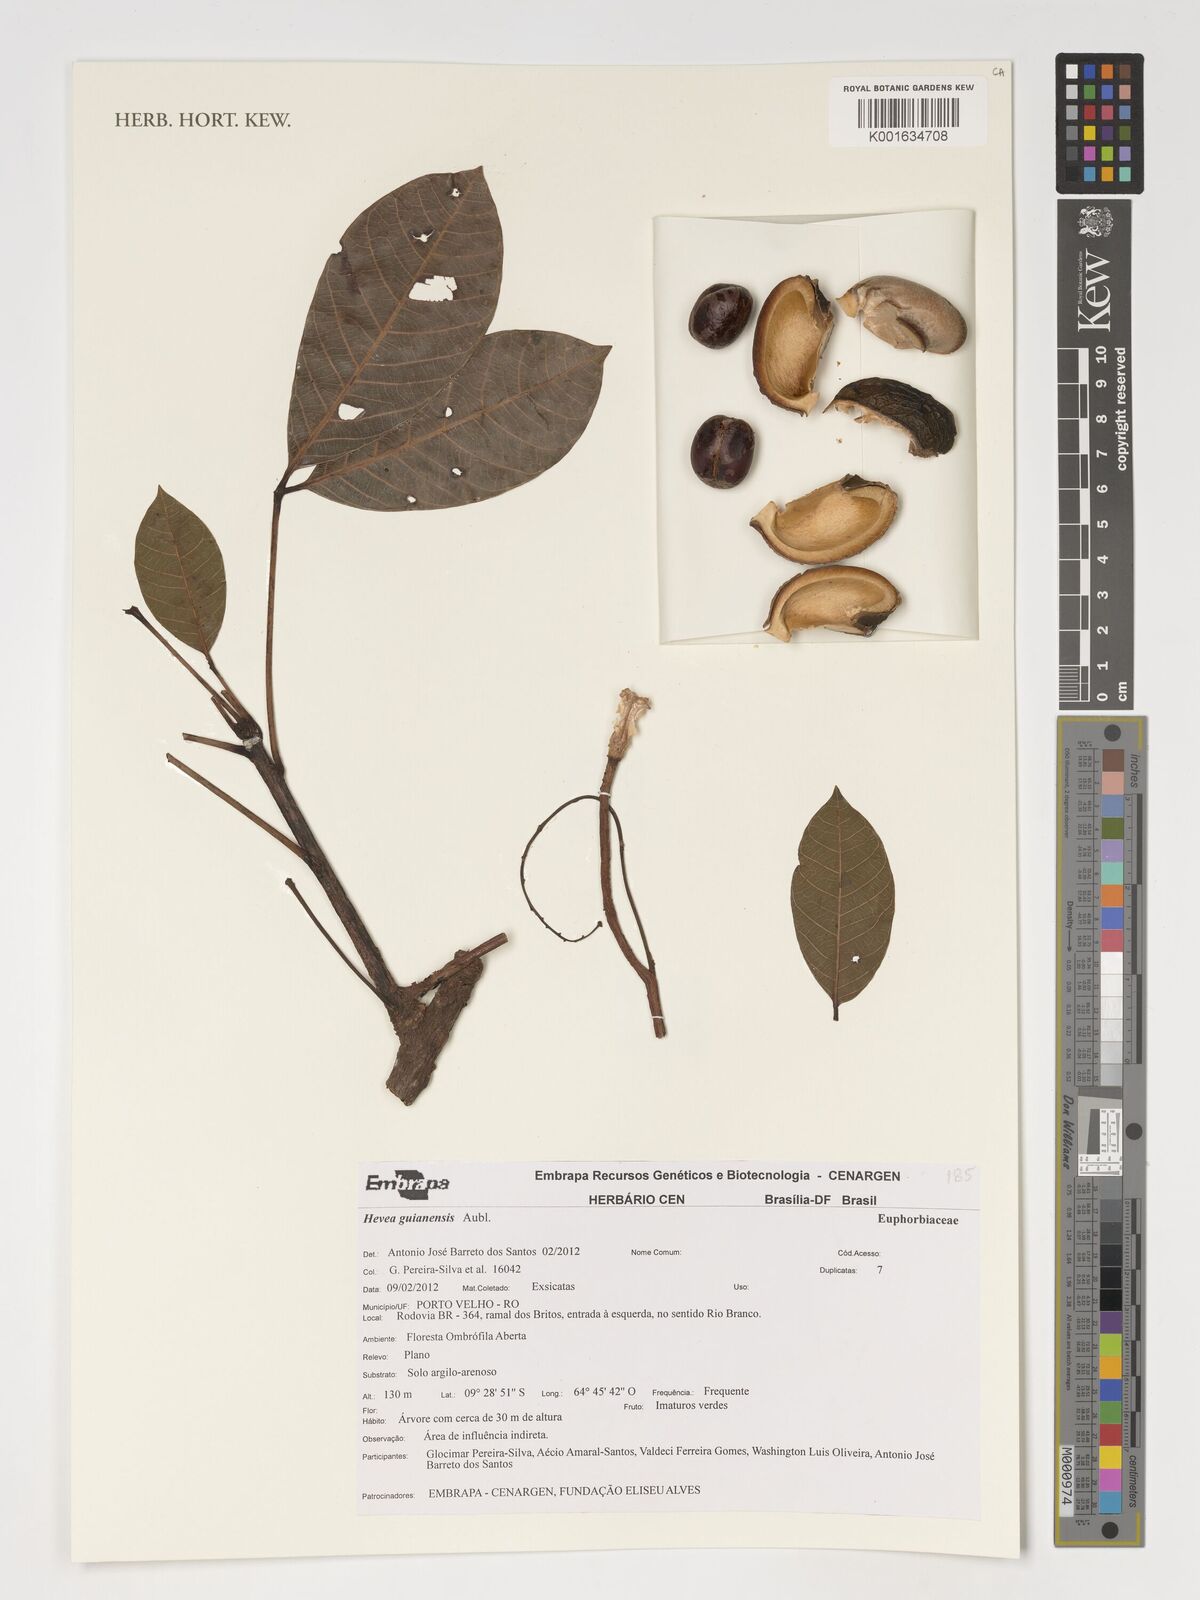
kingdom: Plantae
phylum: Tracheophyta
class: Magnoliopsida
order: Malpighiales
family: Euphorbiaceae
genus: Hevea
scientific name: Hevea guianensis
